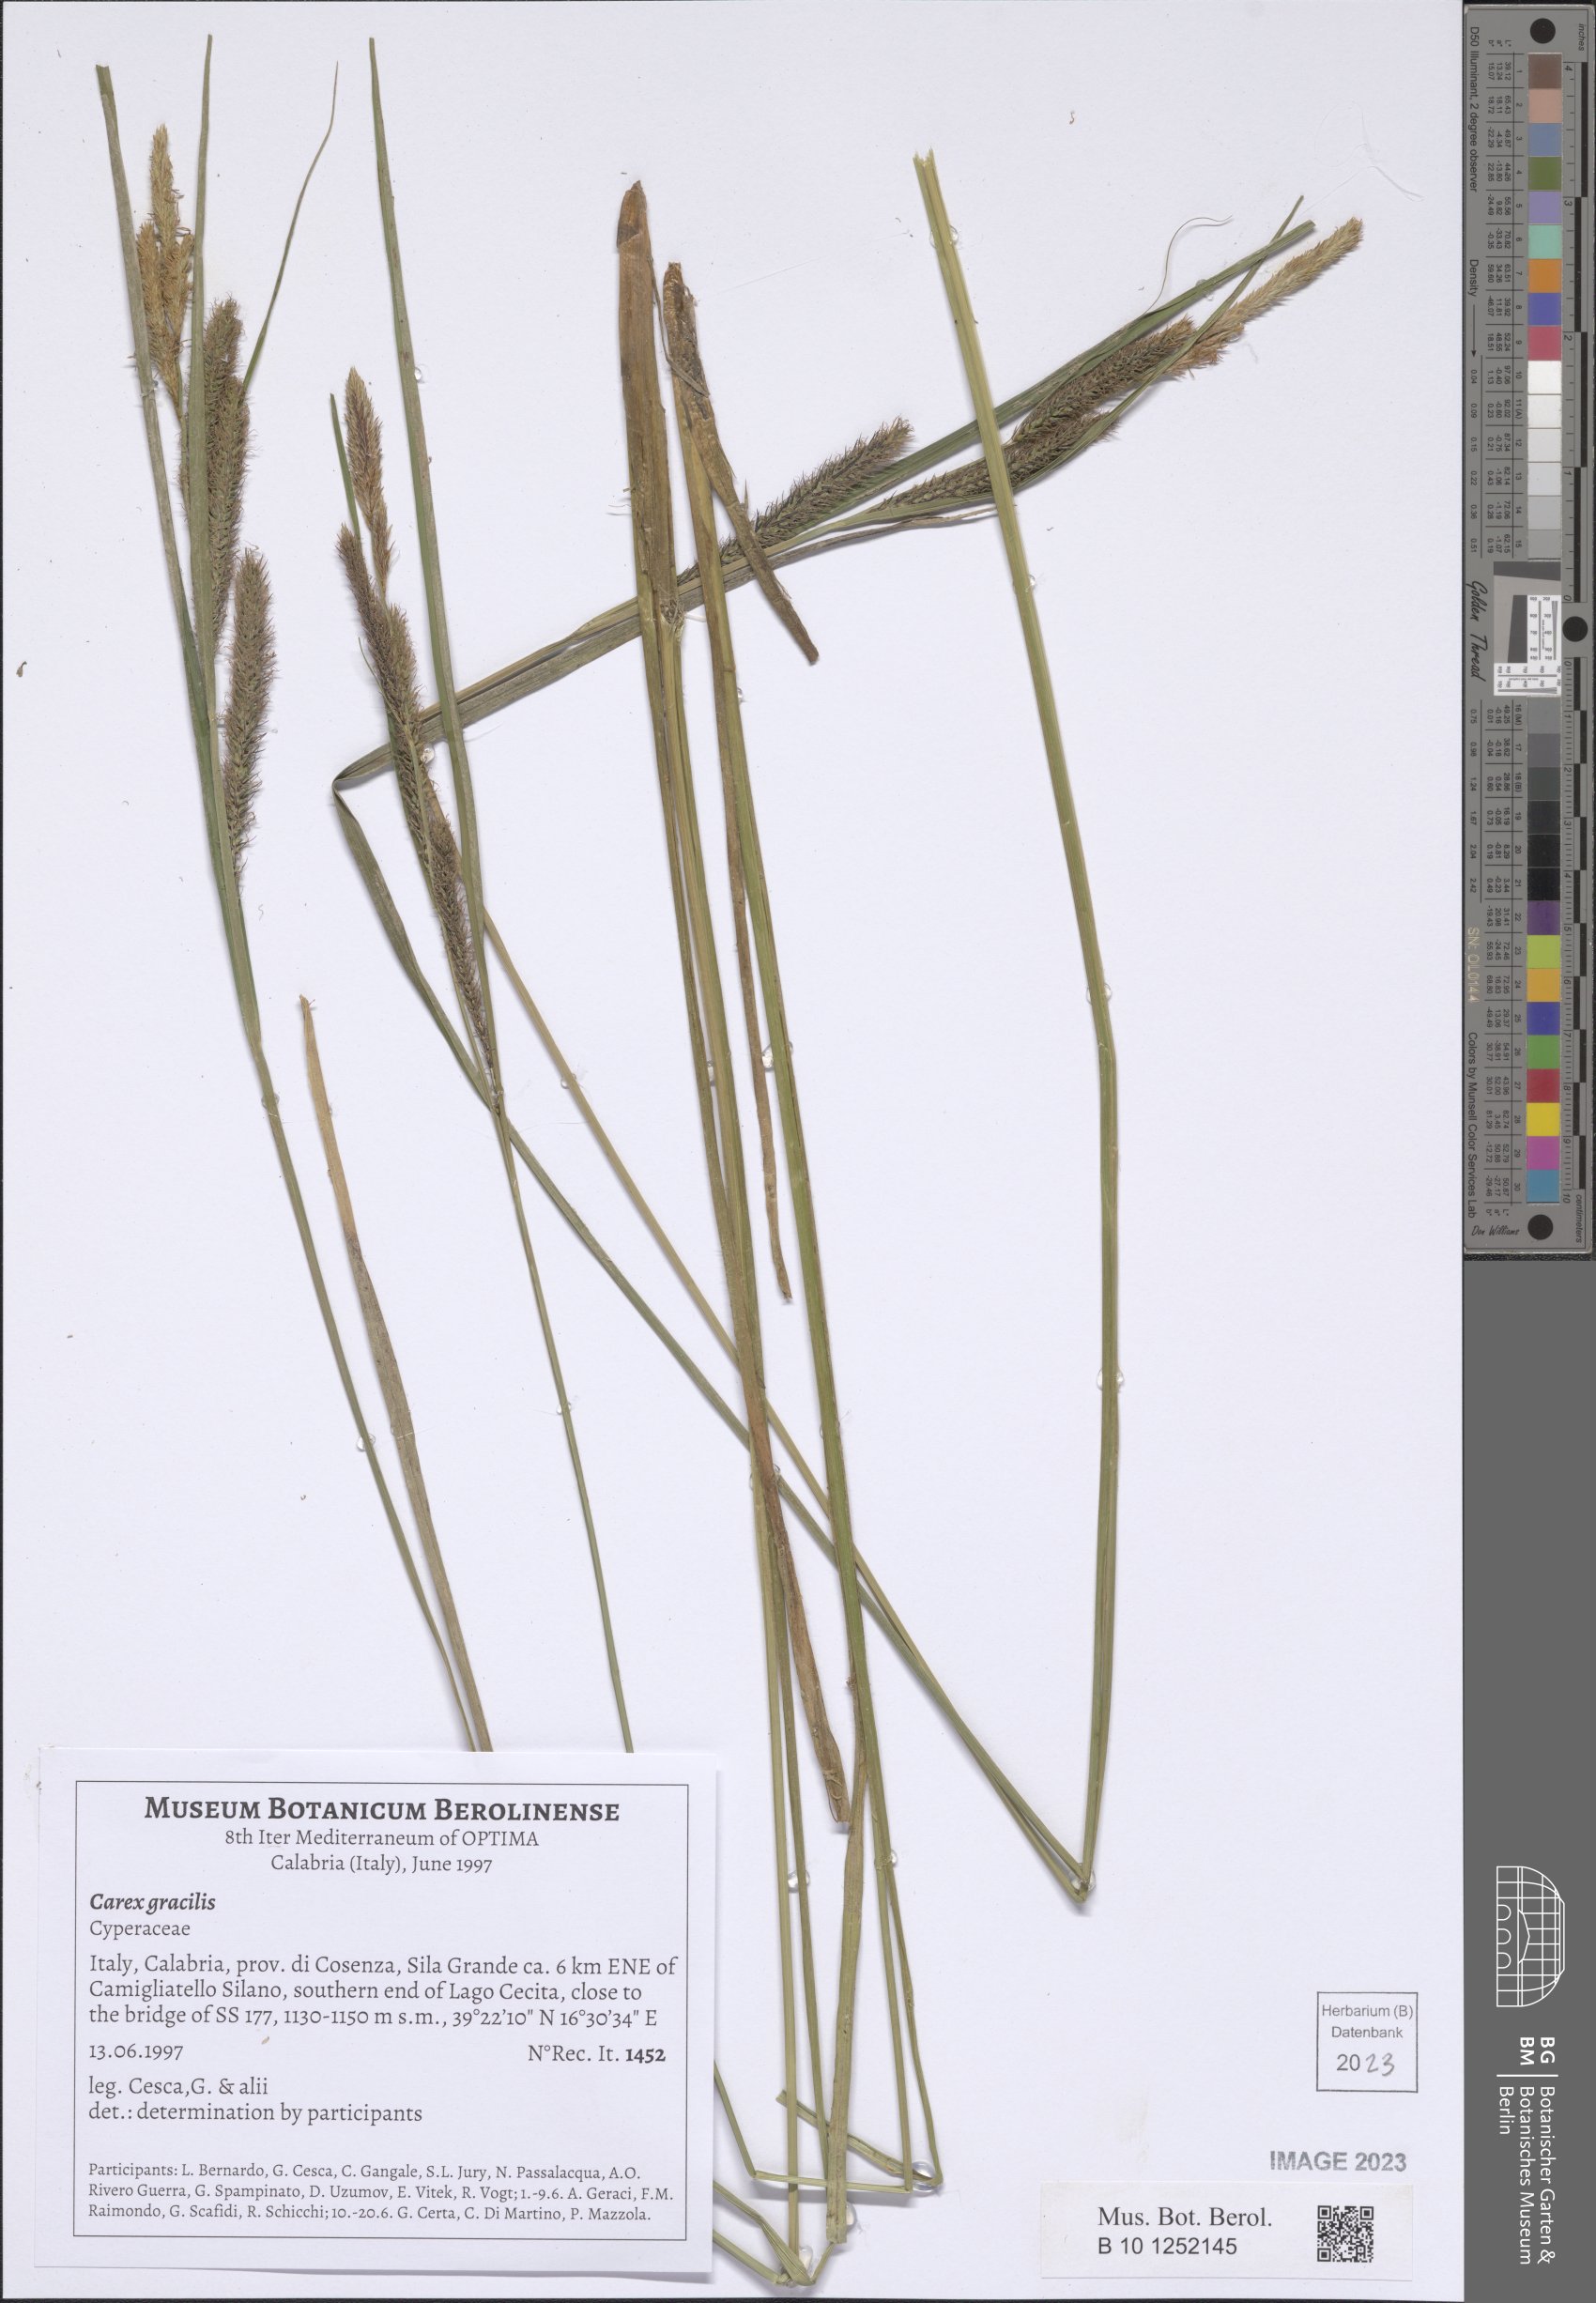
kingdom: Plantae
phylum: Tracheophyta
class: Liliopsida
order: Poales
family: Cyperaceae
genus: Carex
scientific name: Carex acuta
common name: Slender tufted-sedge
